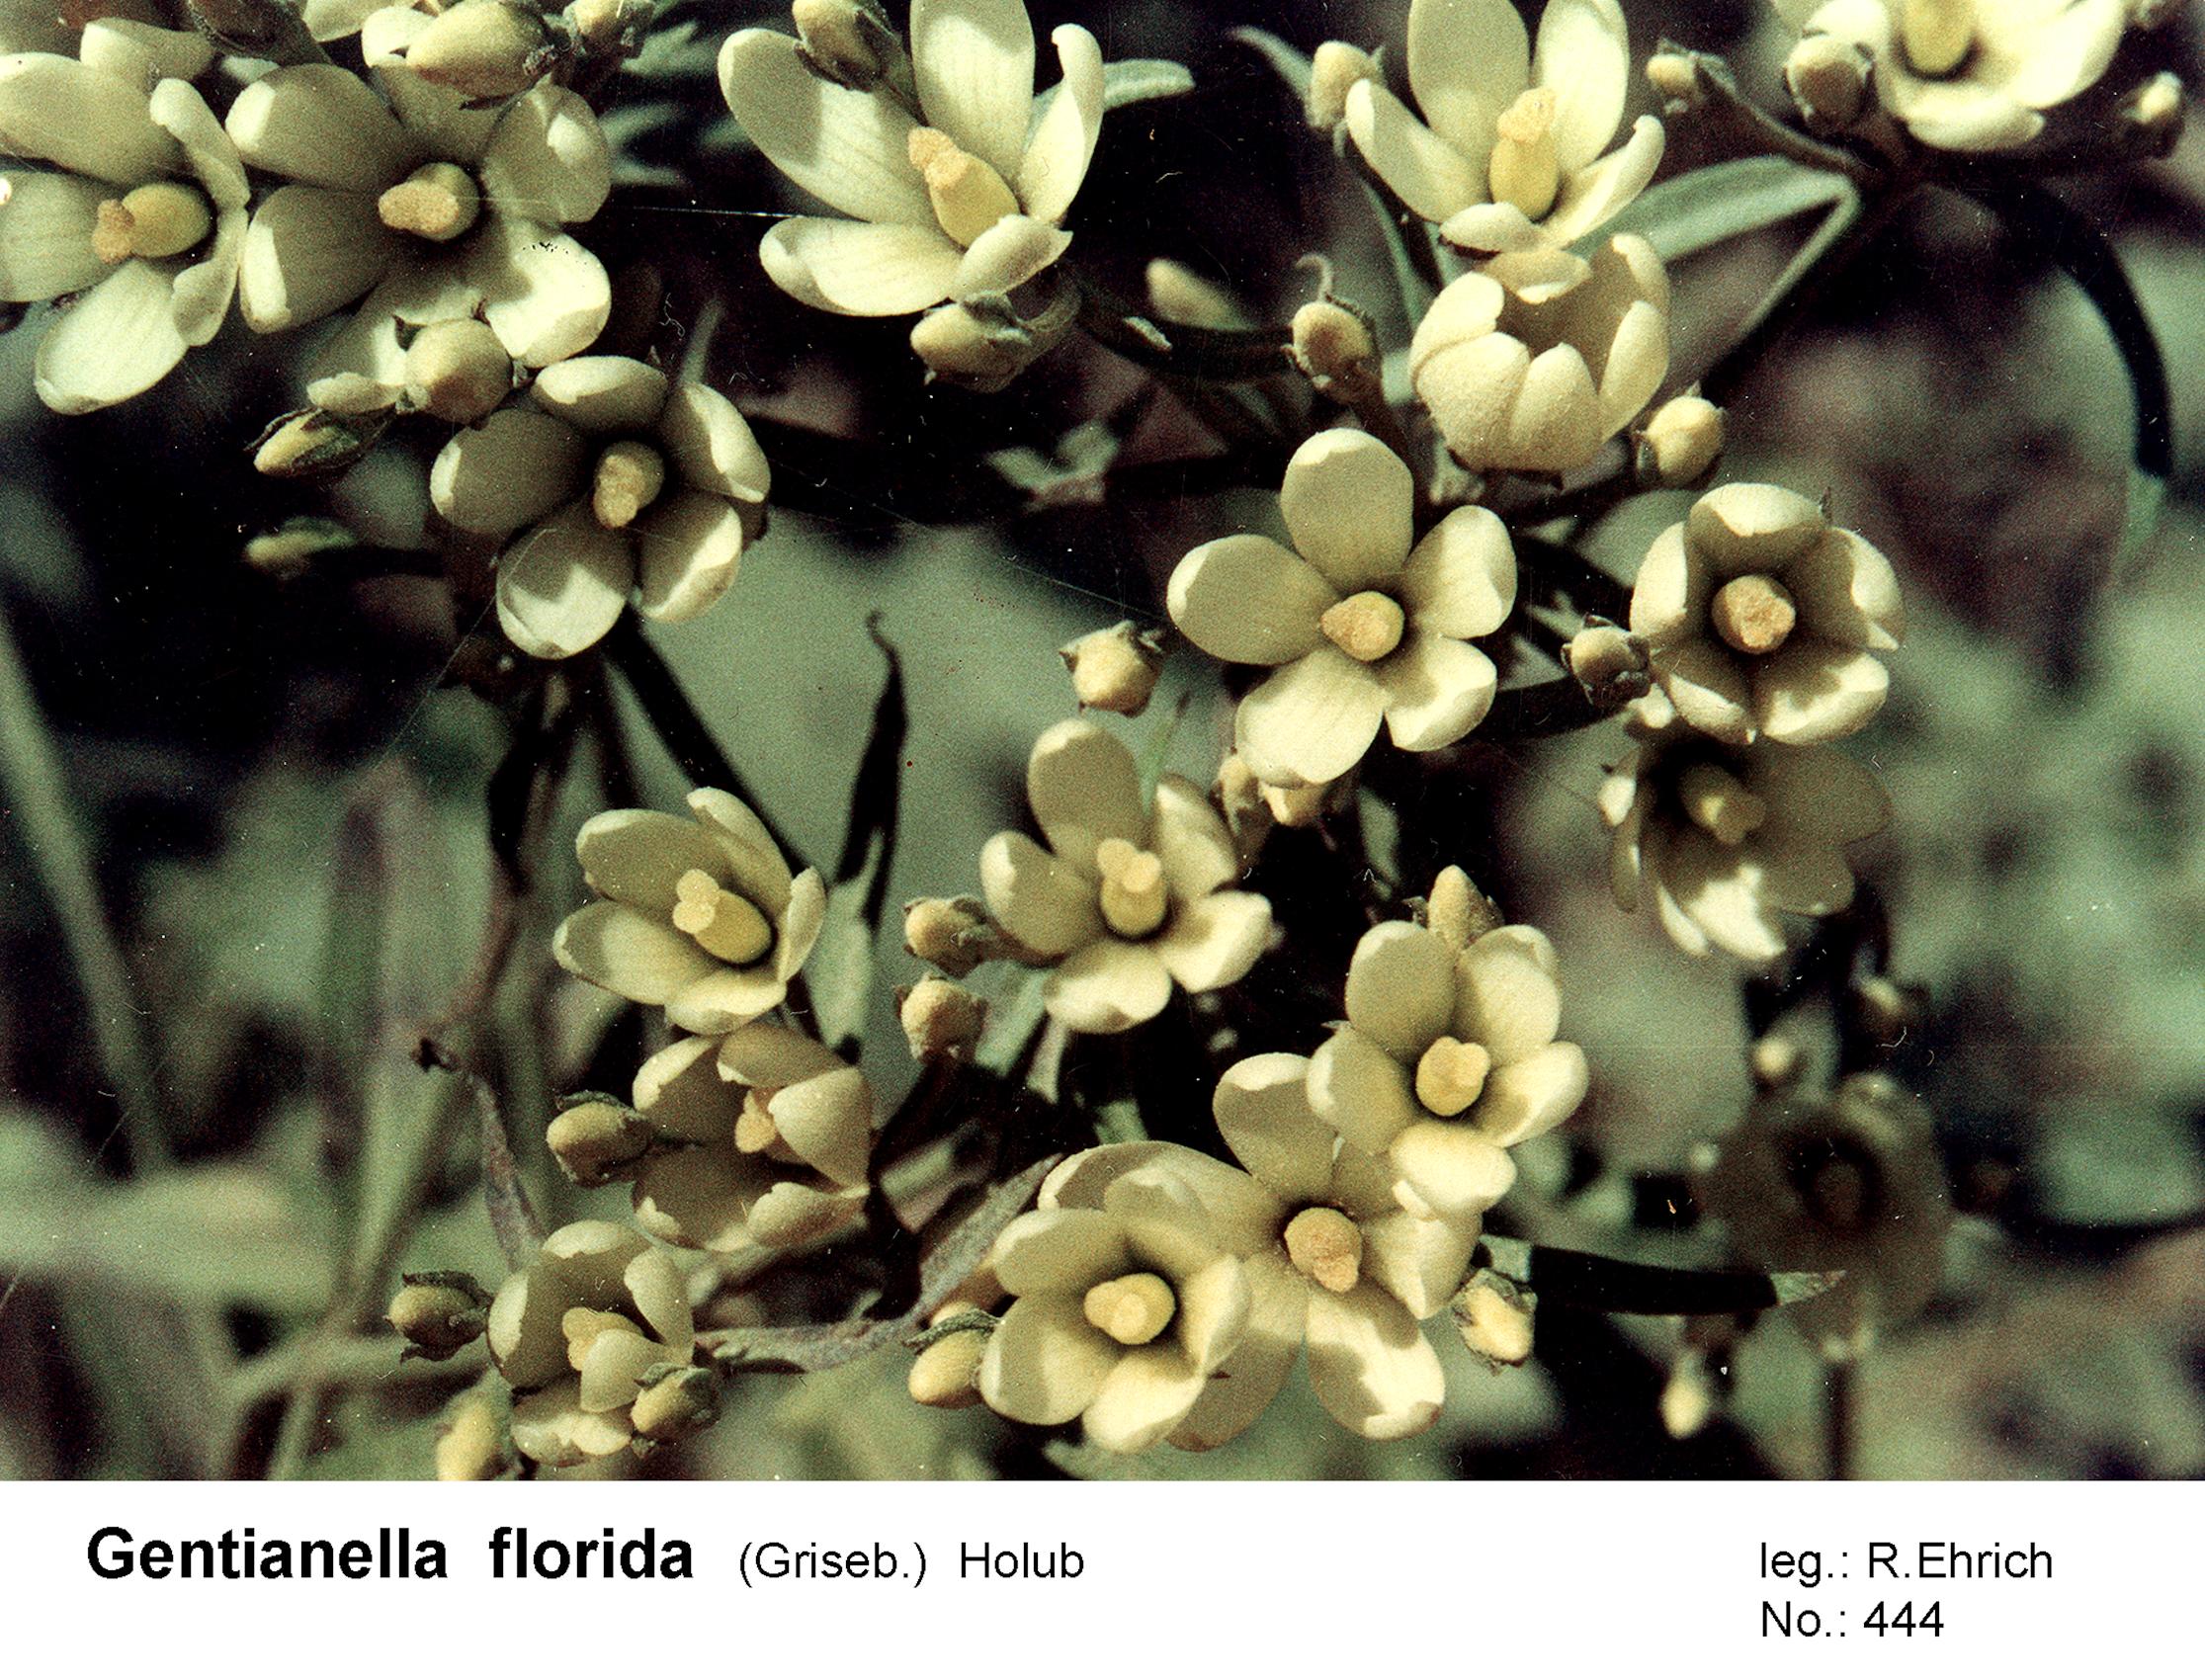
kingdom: Plantae
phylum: Tracheophyta
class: Magnoliopsida
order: Gentianales
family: Gentianaceae
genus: Gentianella
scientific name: Gentianella florida
